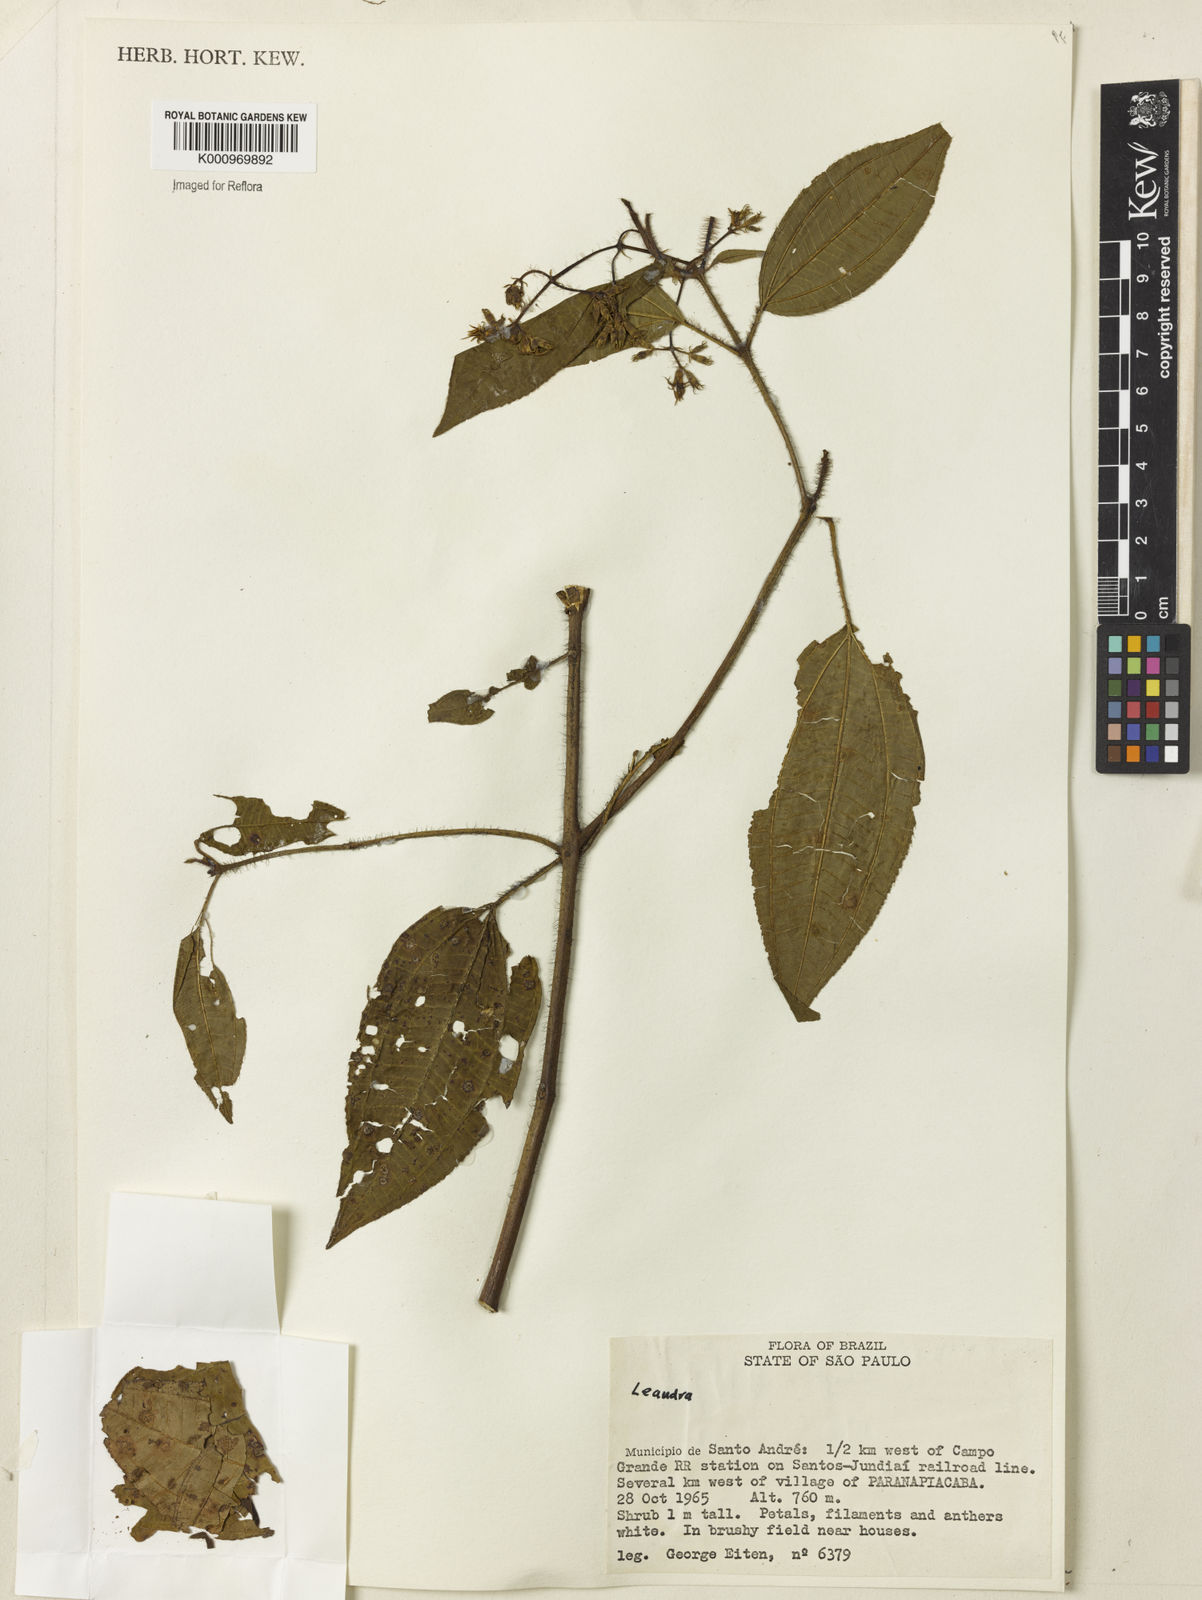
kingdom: Plantae
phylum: Tracheophyta
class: Magnoliopsida
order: Myrtales
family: Melastomataceae
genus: Miconia
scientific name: Miconia
